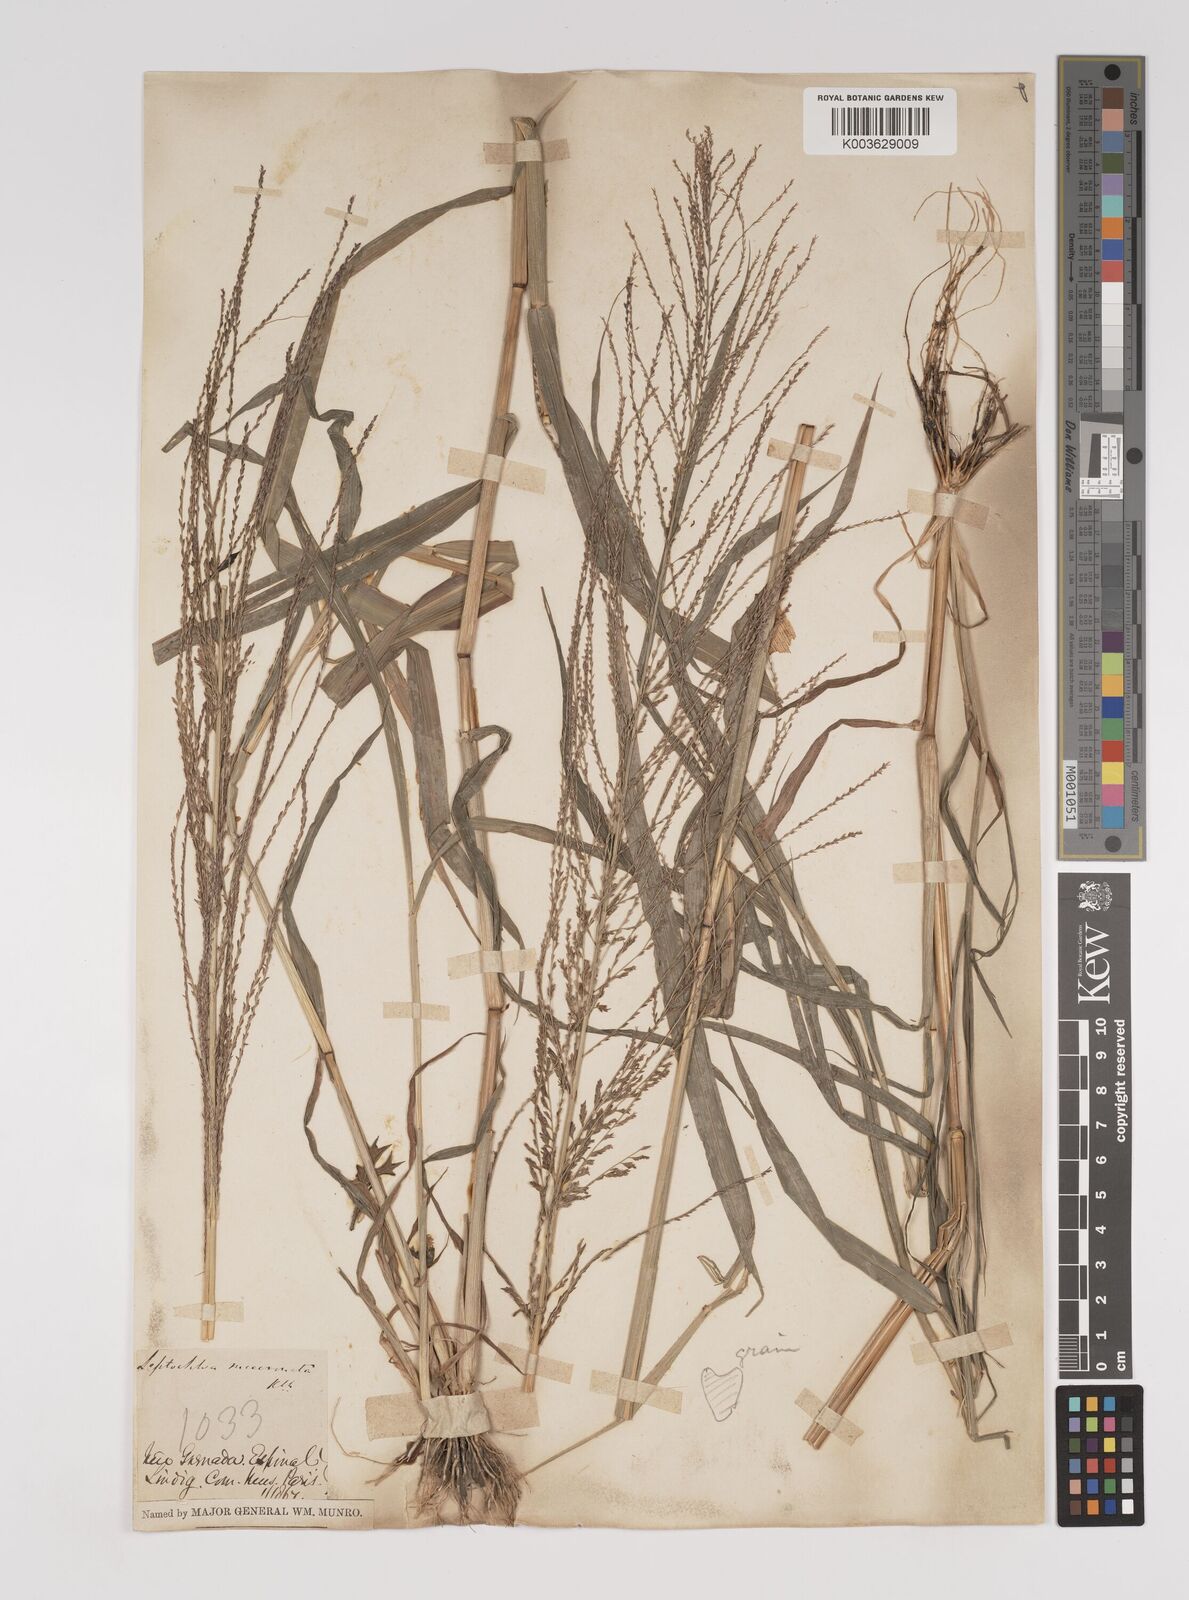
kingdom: Plantae
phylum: Tracheophyta
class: Liliopsida
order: Poales
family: Poaceae
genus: Leptochloa
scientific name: Leptochloa panicea
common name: Mucronate sprangletop
